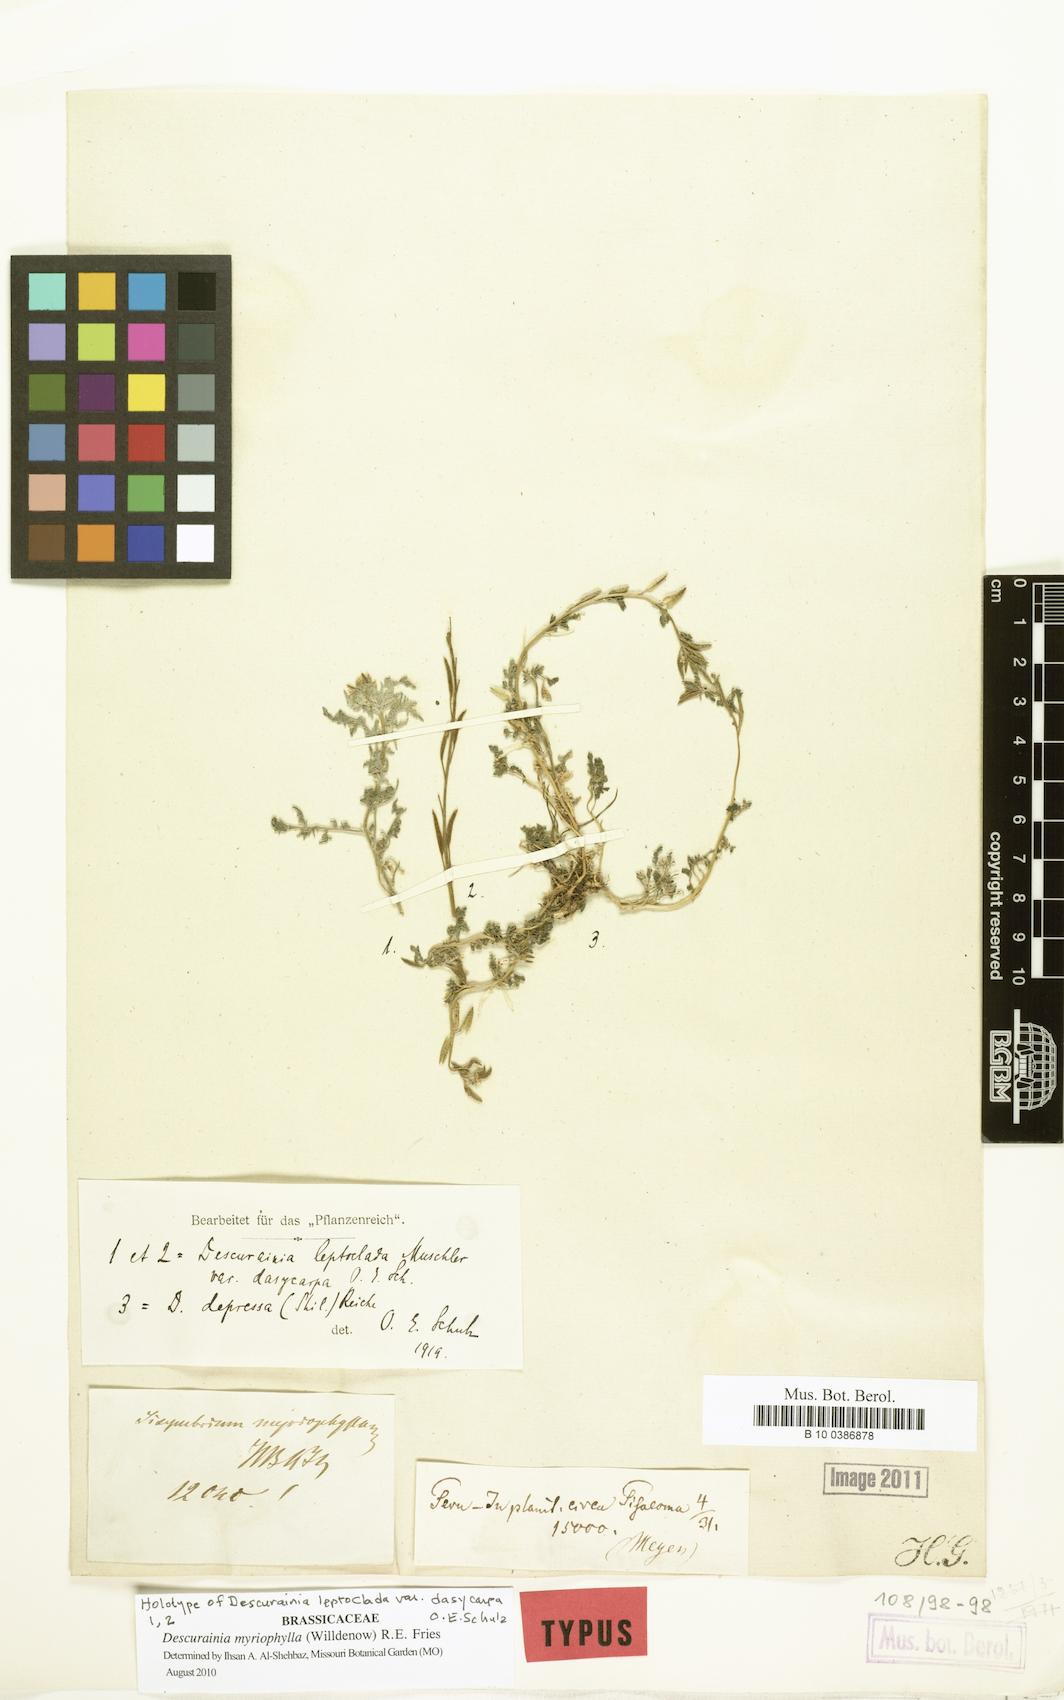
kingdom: Plantae
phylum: Tracheophyta
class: Magnoliopsida
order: Brassicales
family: Brassicaceae
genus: Descurainia
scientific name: Descurainia myriophylla
